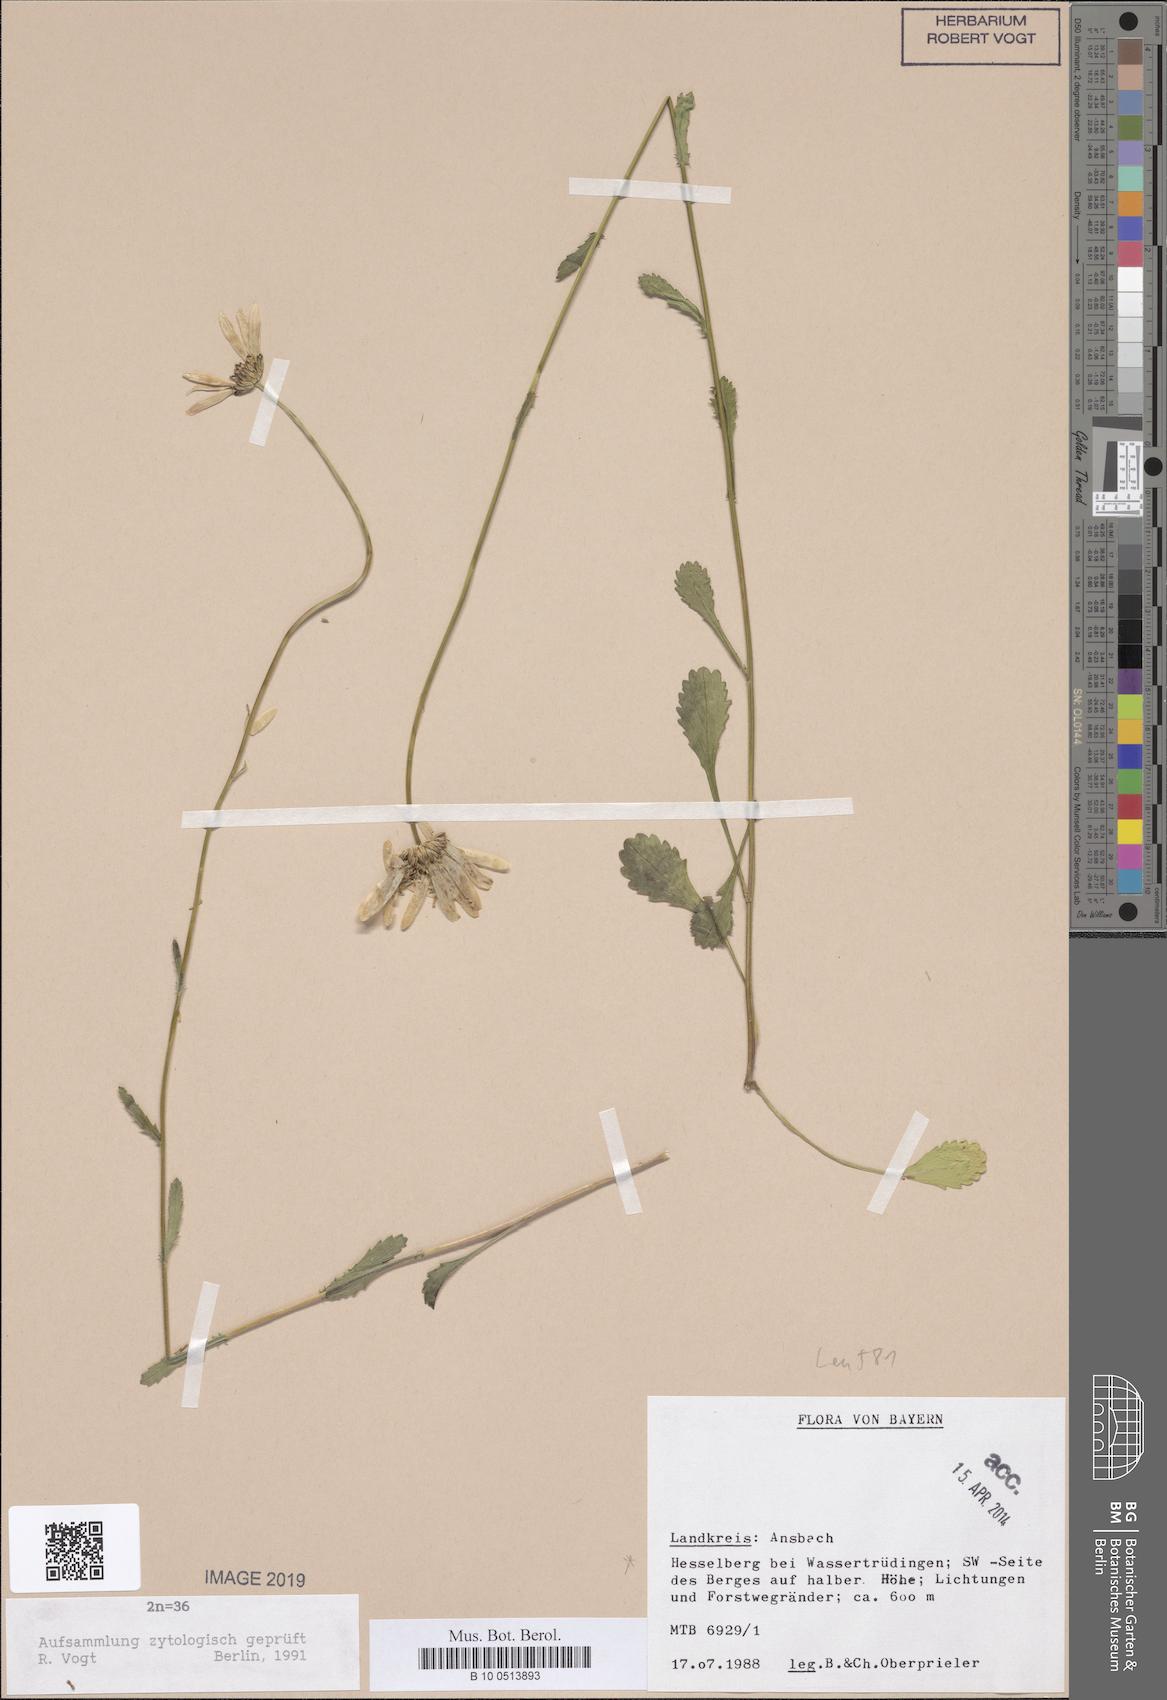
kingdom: Plantae
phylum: Tracheophyta
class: Magnoliopsida
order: Asterales
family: Asteraceae
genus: Leucanthemum
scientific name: Leucanthemum ircutianum
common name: Daisy
